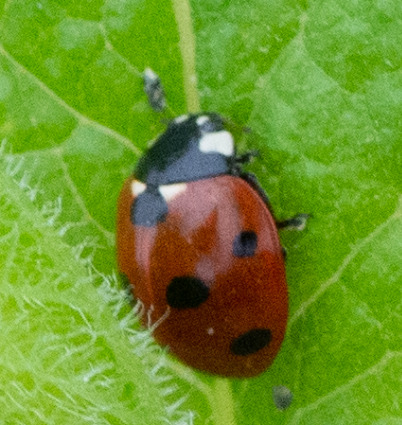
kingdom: Animalia
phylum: Arthropoda
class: Insecta
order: Coleoptera
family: Coccinellidae
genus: Coccinella
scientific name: Coccinella septempunctata
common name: Syvplettet mariehøne
